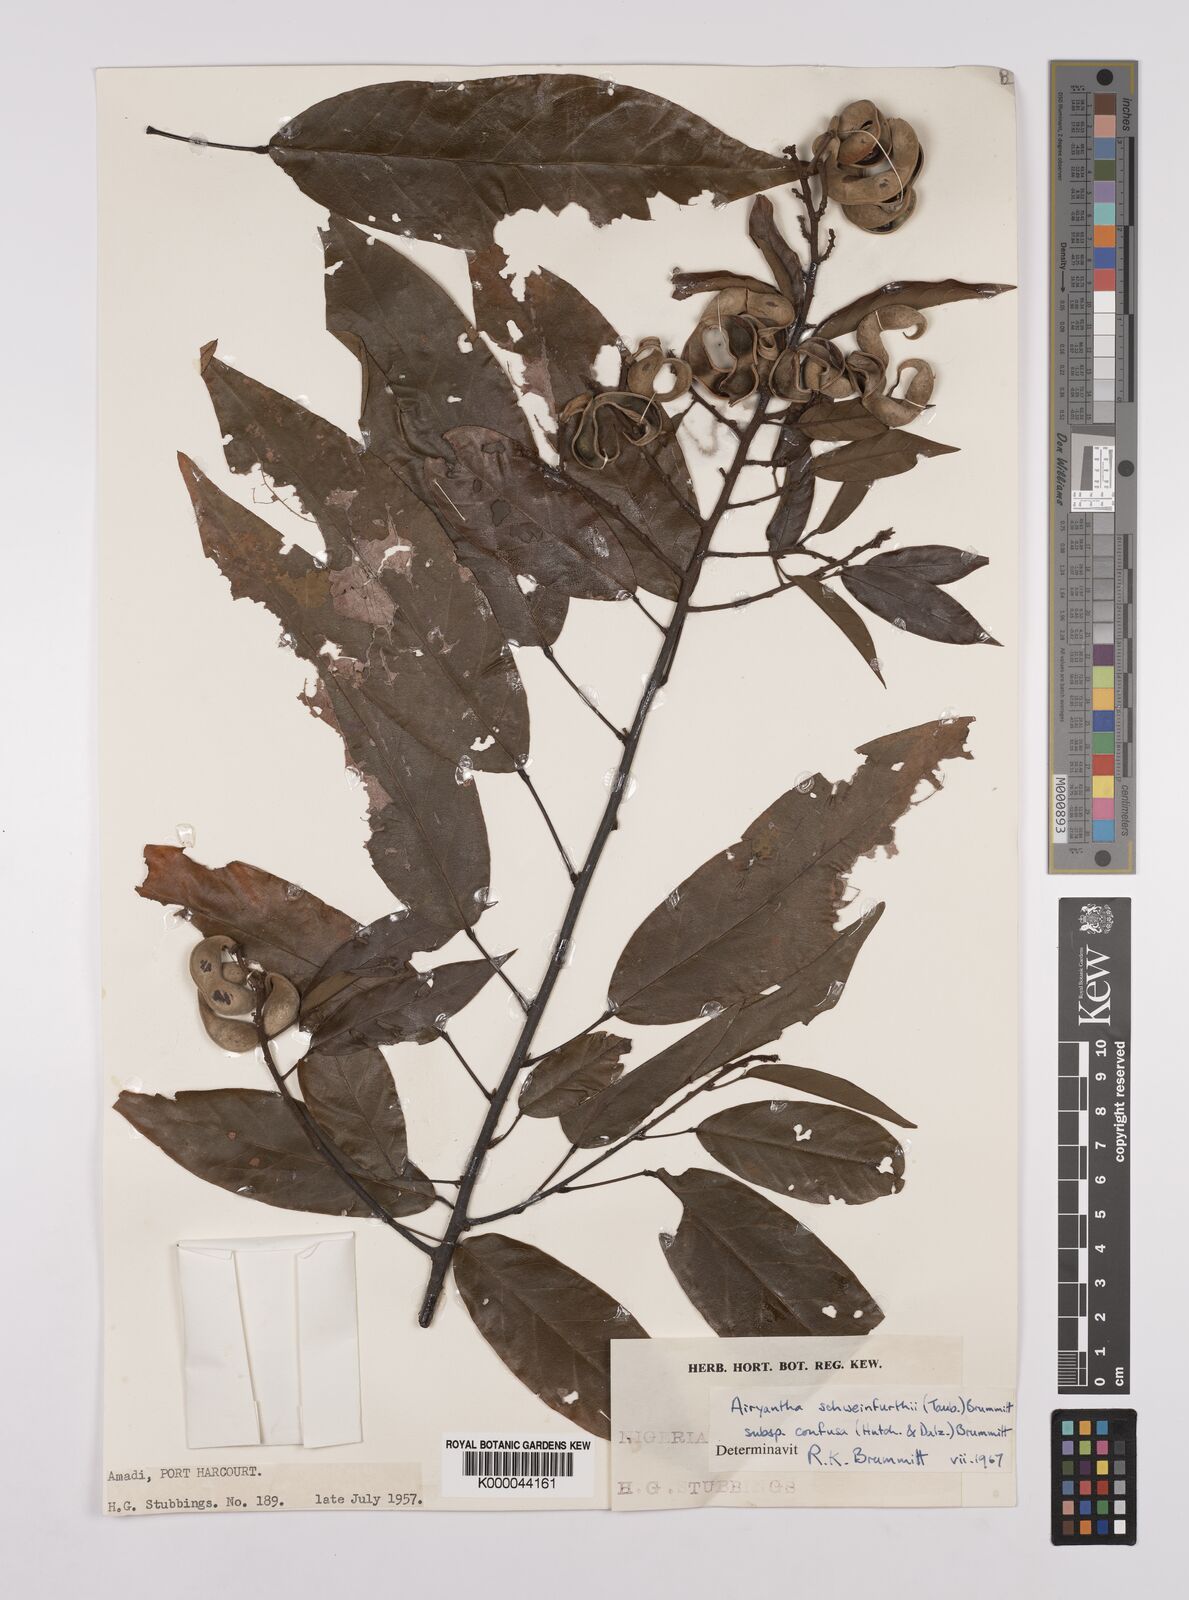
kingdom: Plantae
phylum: Tracheophyta
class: Magnoliopsida
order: Fabales
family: Fabaceae
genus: Airyantha
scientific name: Airyantha schweinfurthii
